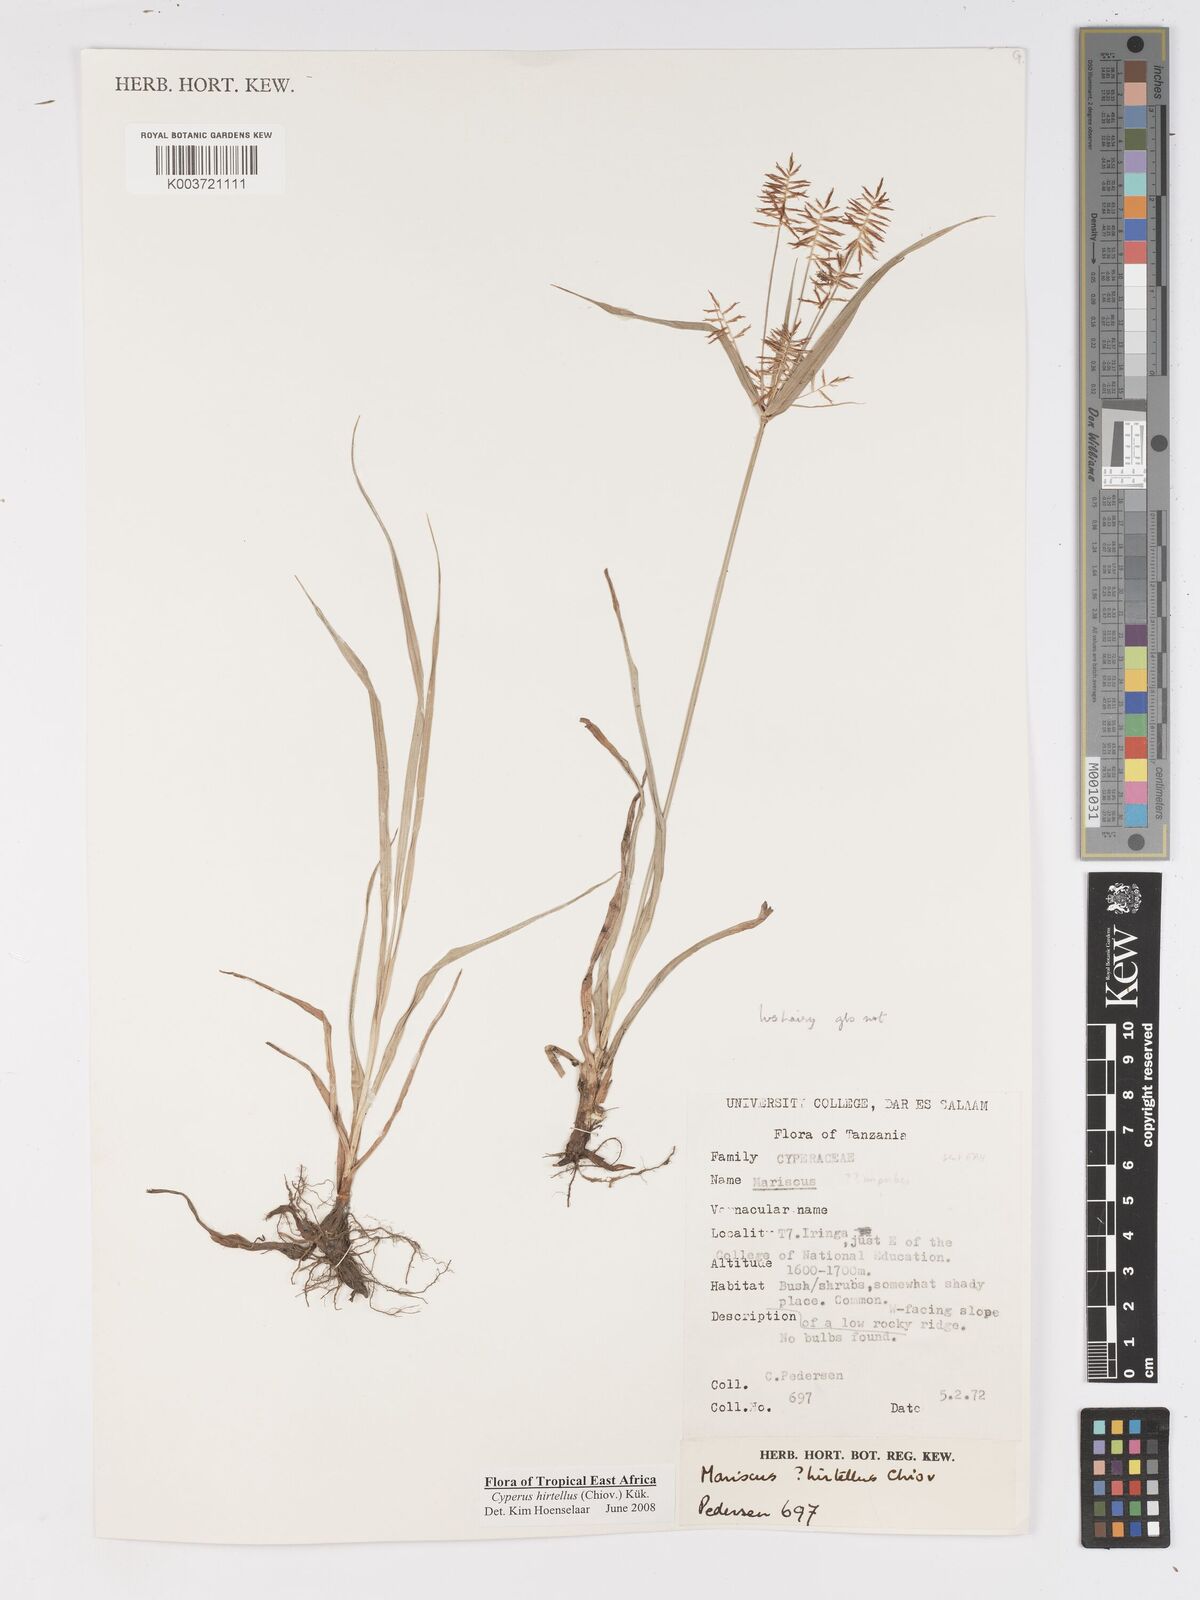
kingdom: Plantae
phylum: Tracheophyta
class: Liliopsida
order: Poales
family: Cyperaceae
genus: Cyperus
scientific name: Cyperus hirtellus
